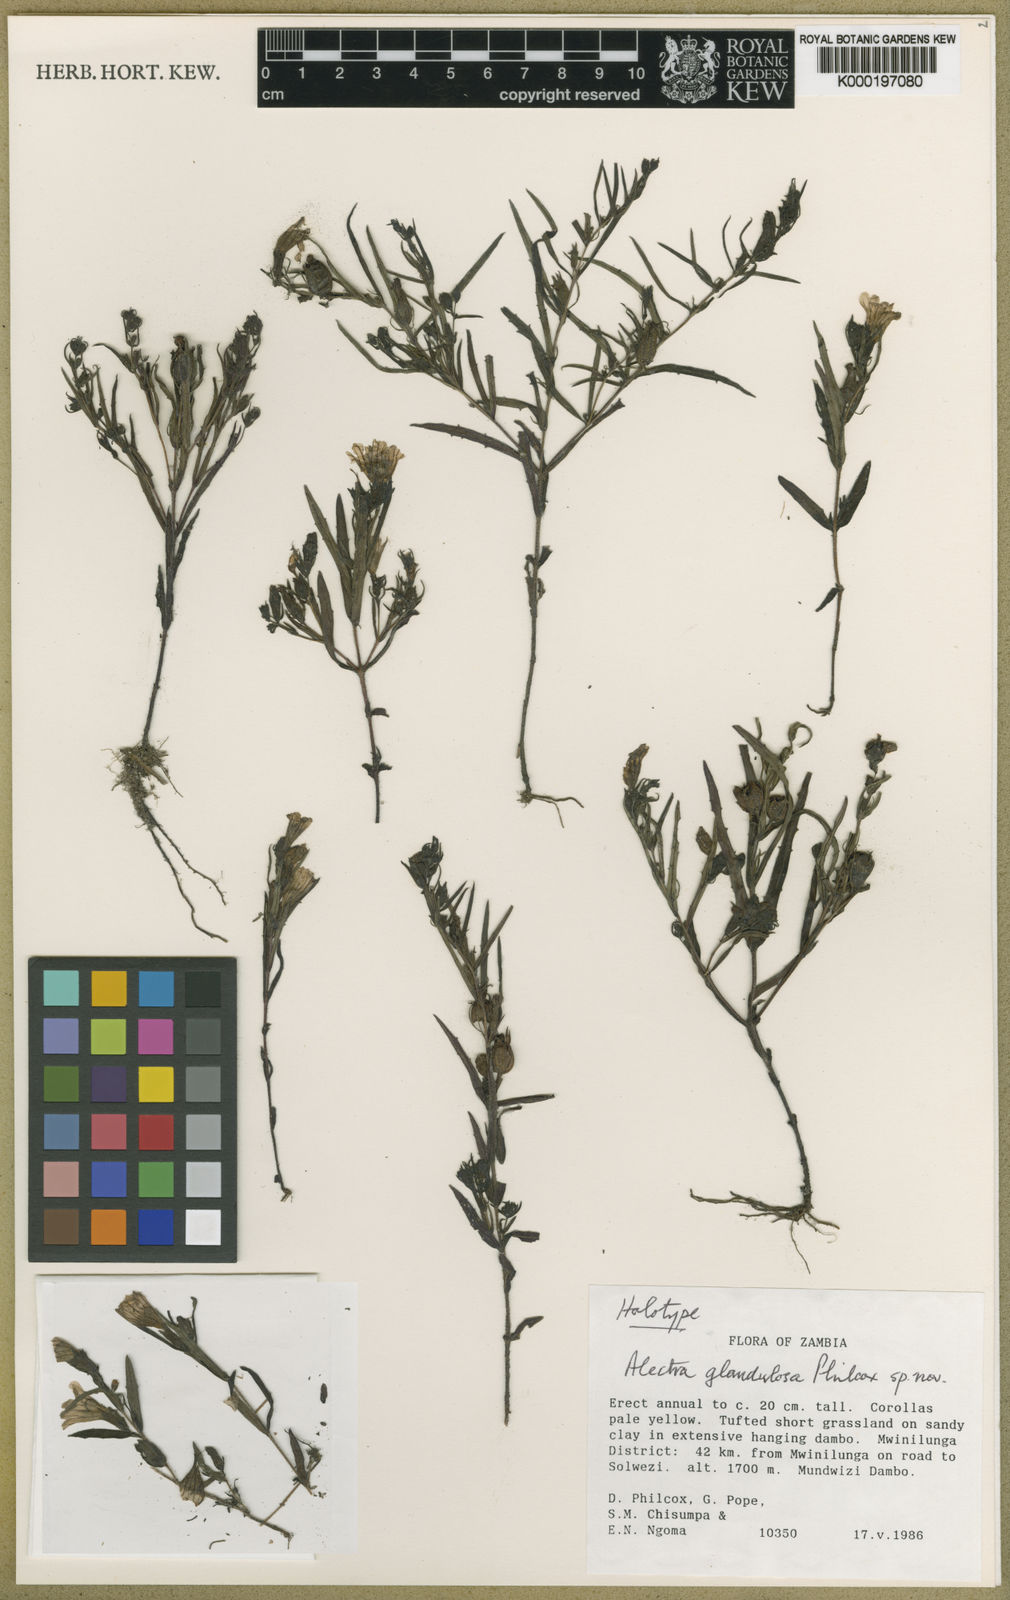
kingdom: Plantae
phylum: Tracheophyta
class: Magnoliopsida
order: Lamiales
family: Orobanchaceae
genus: Alectra
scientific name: Alectra glandulosa
